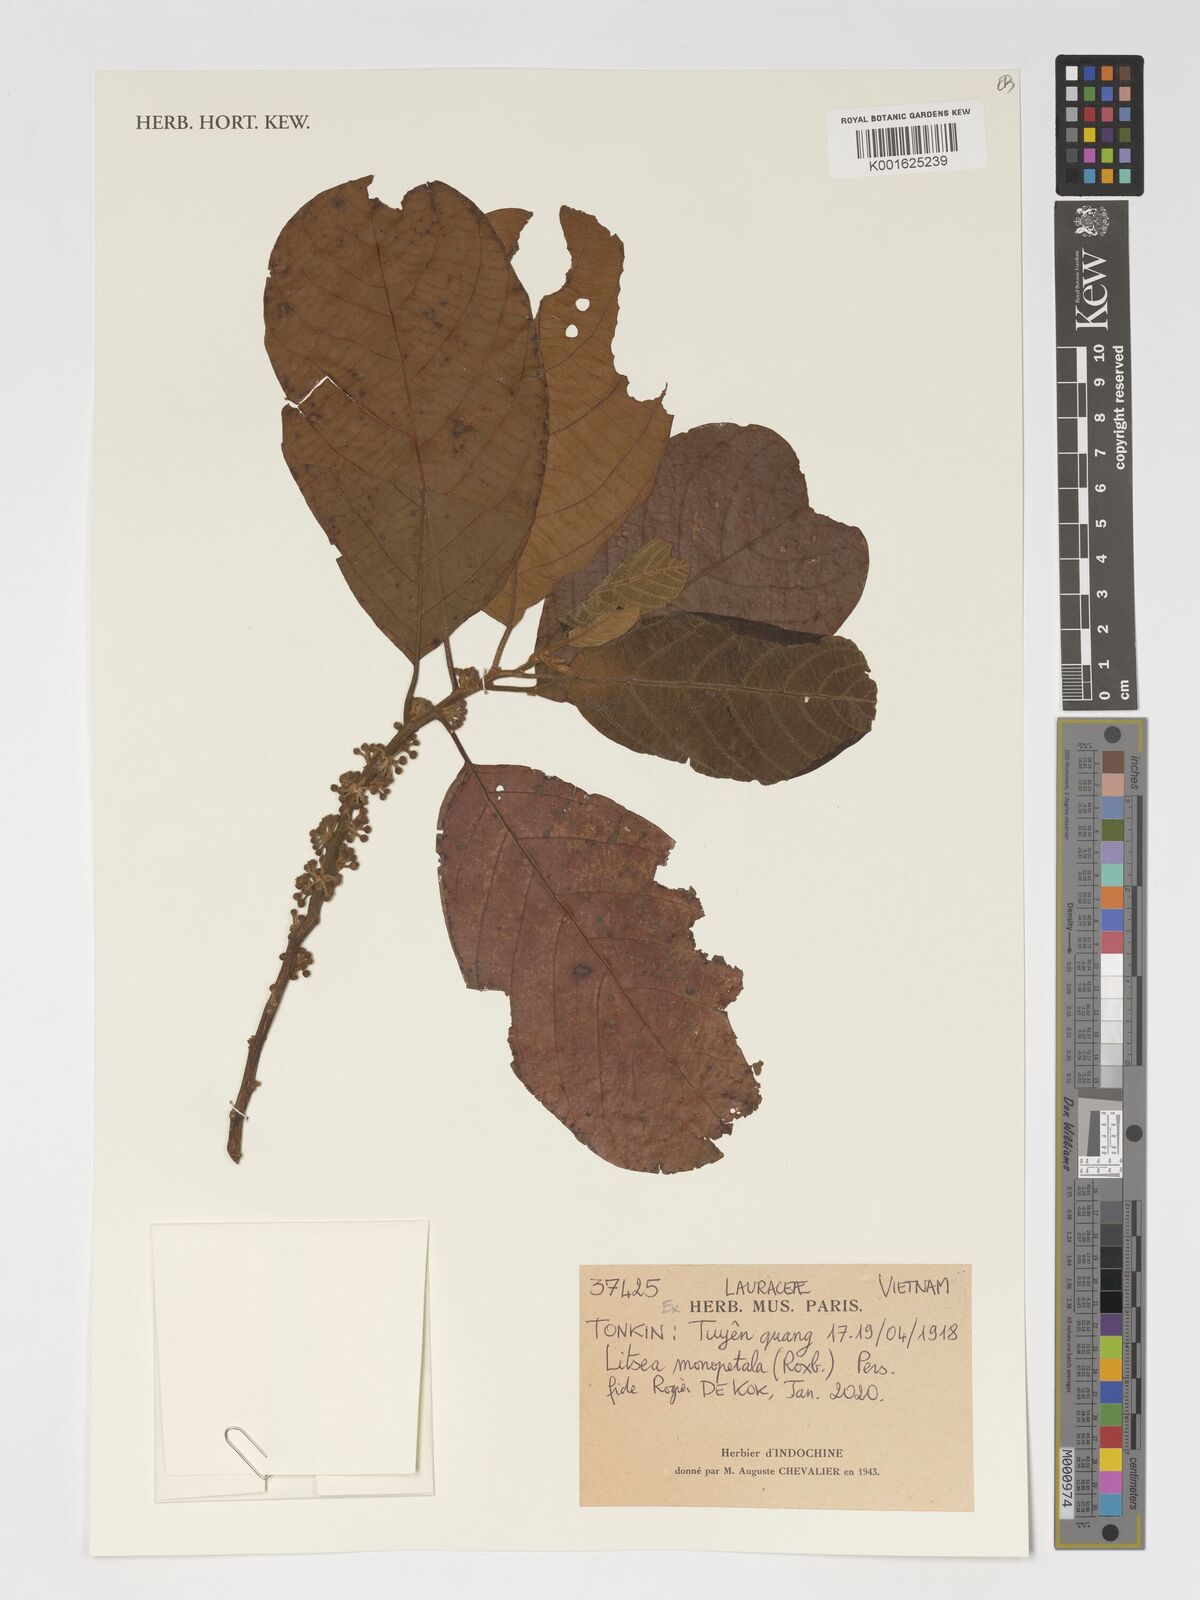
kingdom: Plantae
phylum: Tracheophyta
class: Magnoliopsida
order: Laurales
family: Lauraceae
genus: Litsea
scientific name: Litsea monopetala
